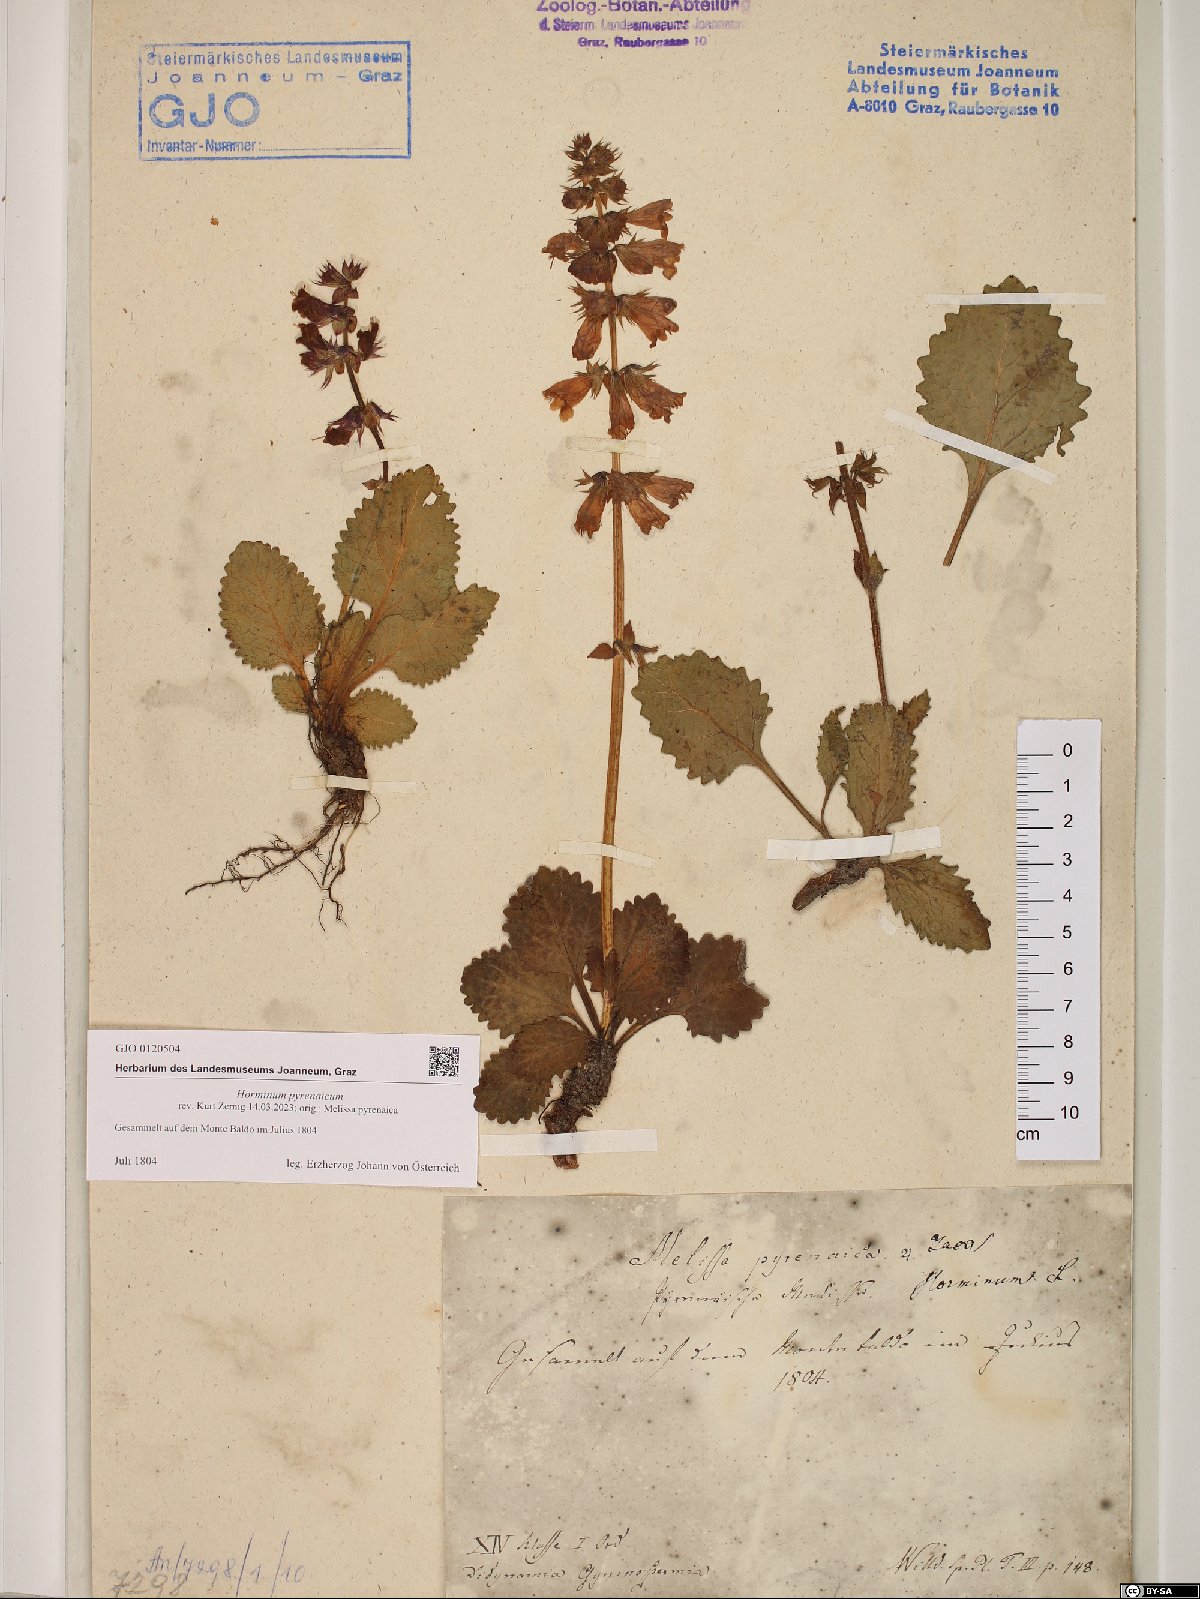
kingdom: Plantae
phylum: Tracheophyta
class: Magnoliopsida
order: Lamiales
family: Lamiaceae
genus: Horminum
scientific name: Horminum pyrenaicum
